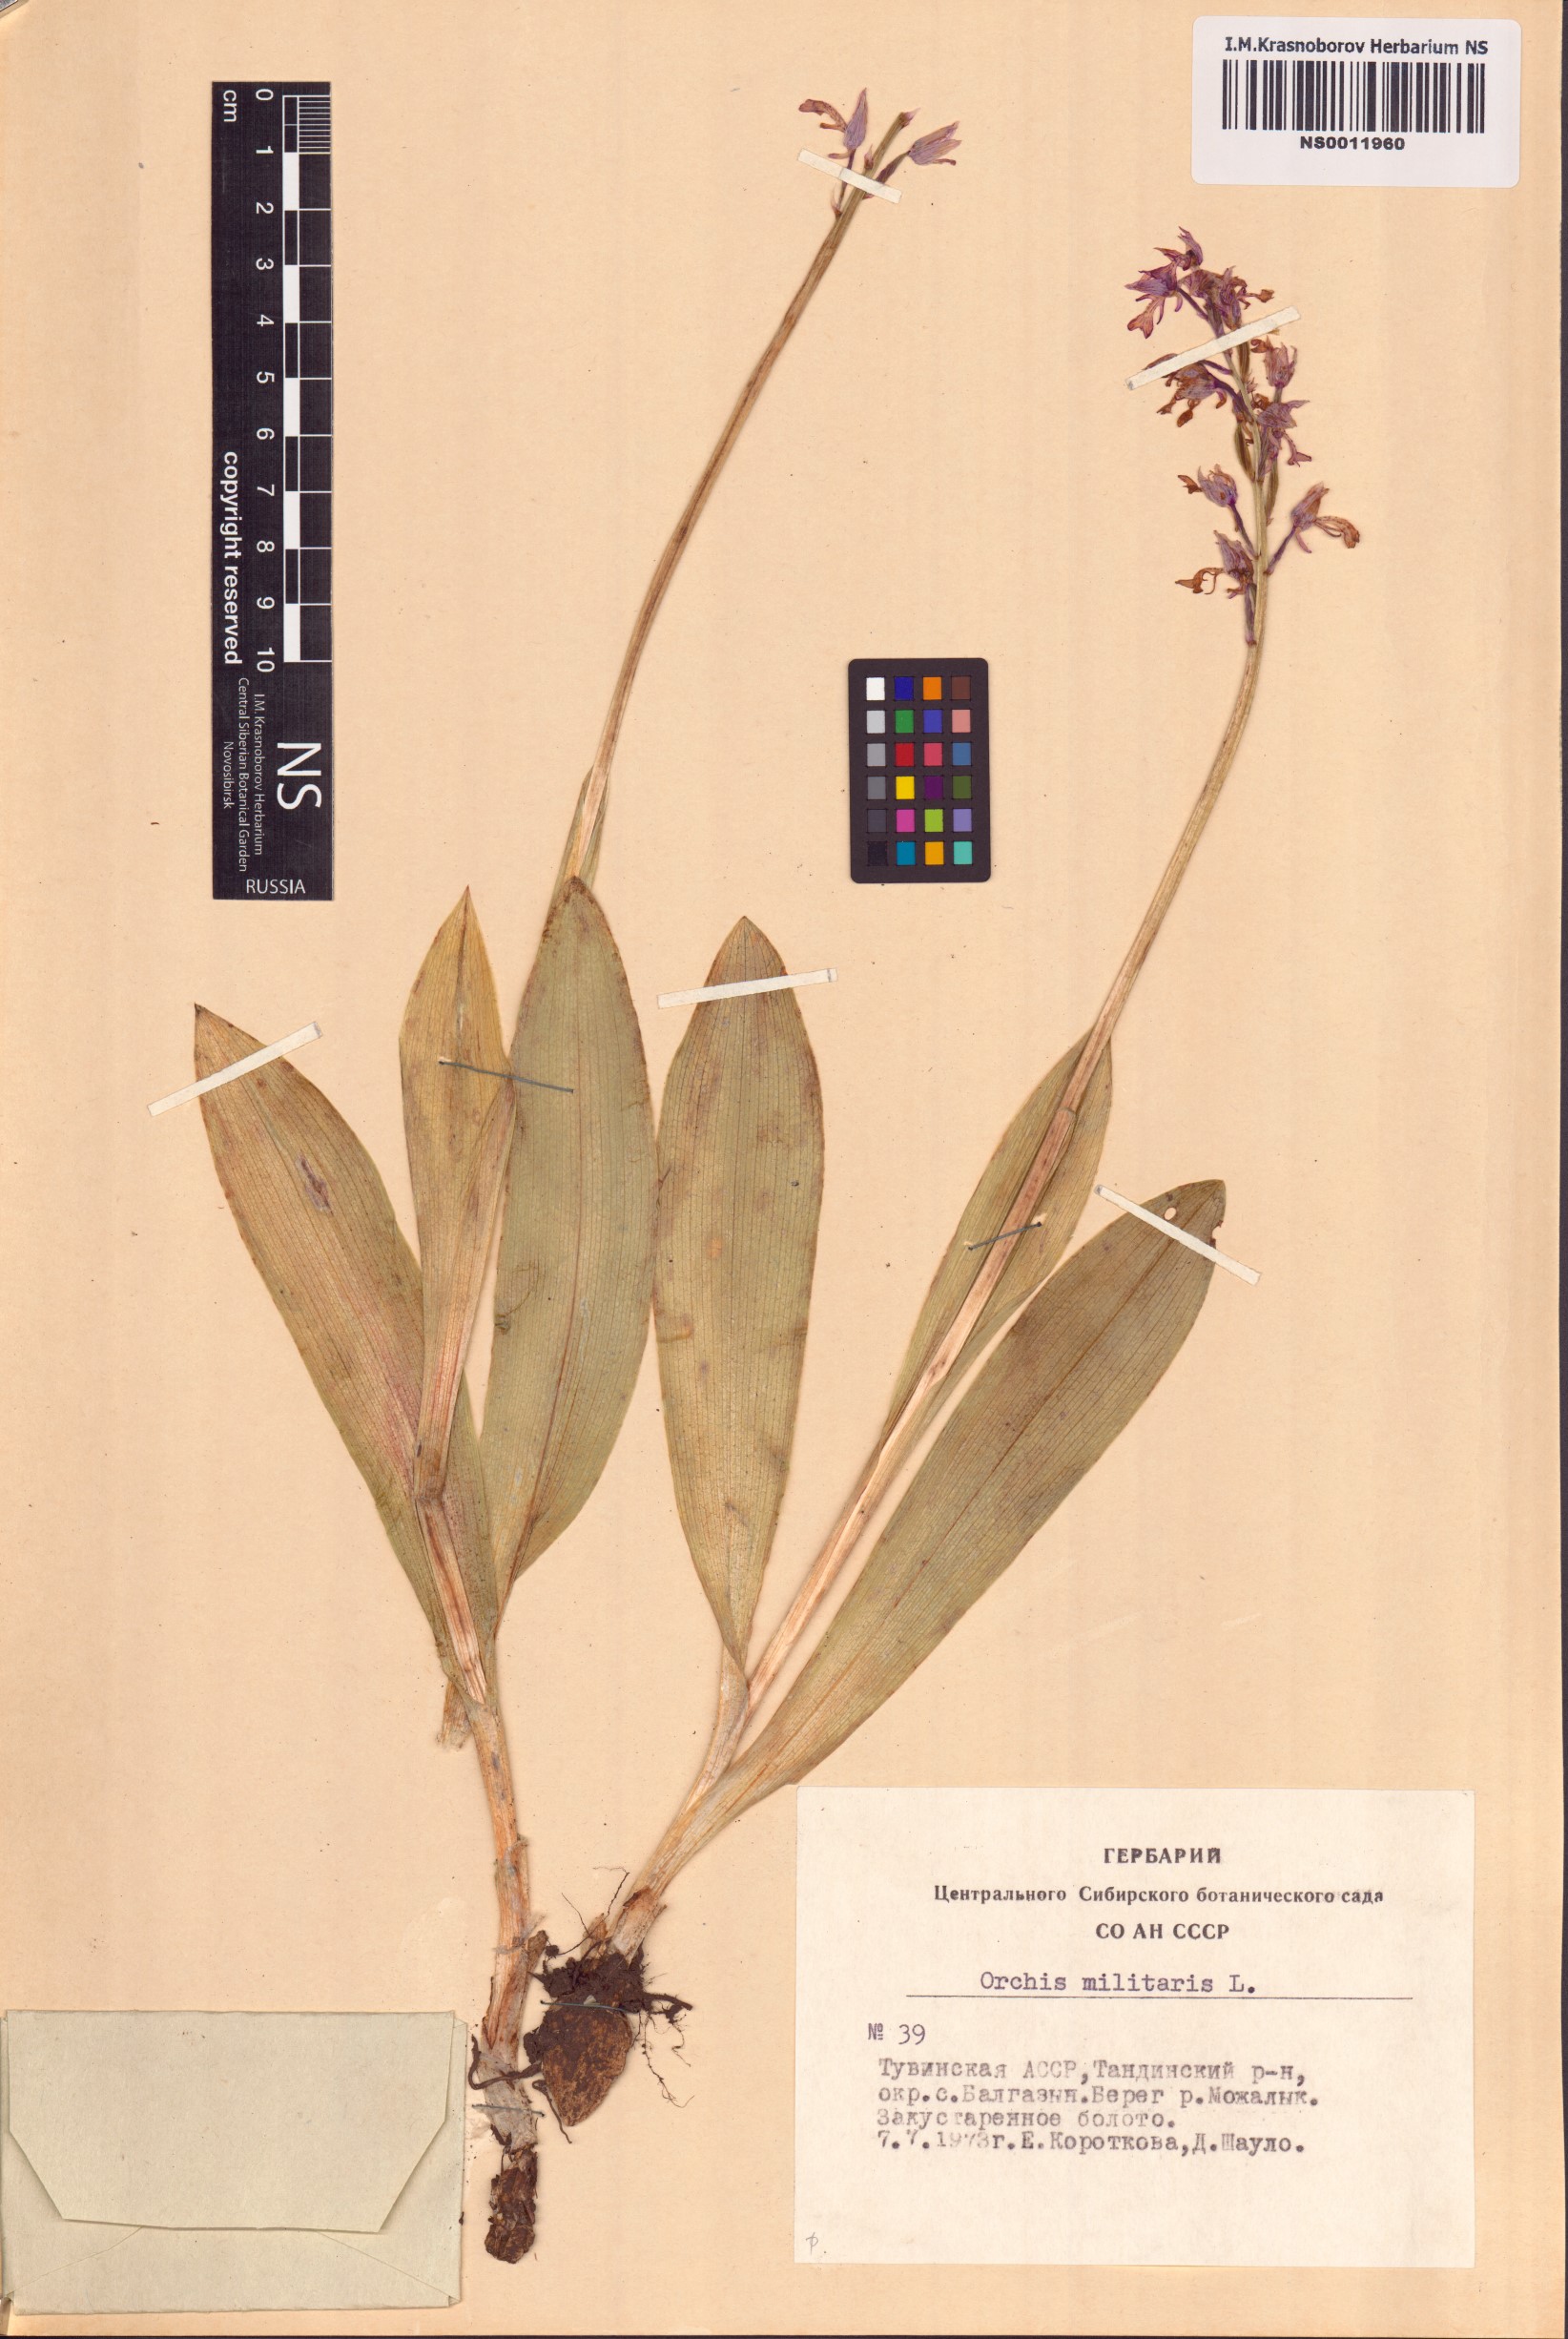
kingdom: Plantae
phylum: Tracheophyta
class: Liliopsida
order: Asparagales
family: Orchidaceae
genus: Orchis
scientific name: Orchis militaris
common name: Military orchid
